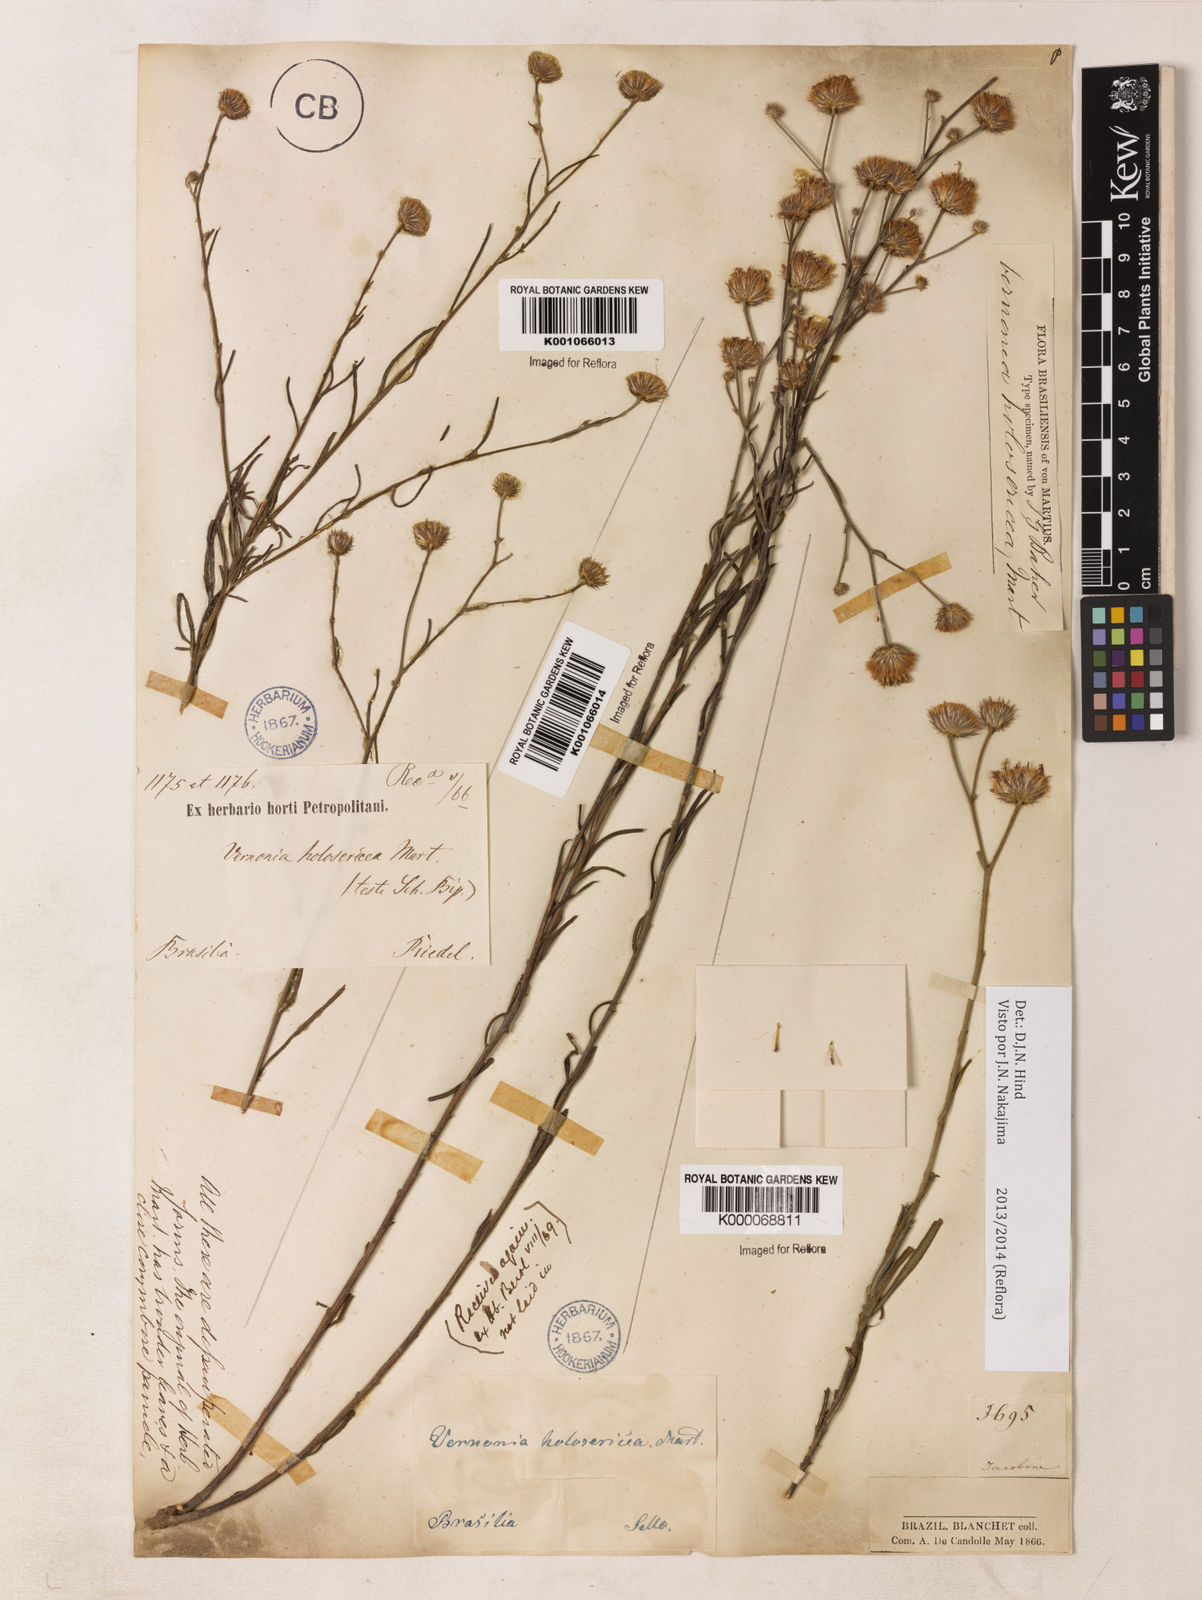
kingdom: Plantae
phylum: Tracheophyta
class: Magnoliopsida
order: Asterales
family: Asteraceae
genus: Echinocoryne
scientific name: Echinocoryne holosericea
